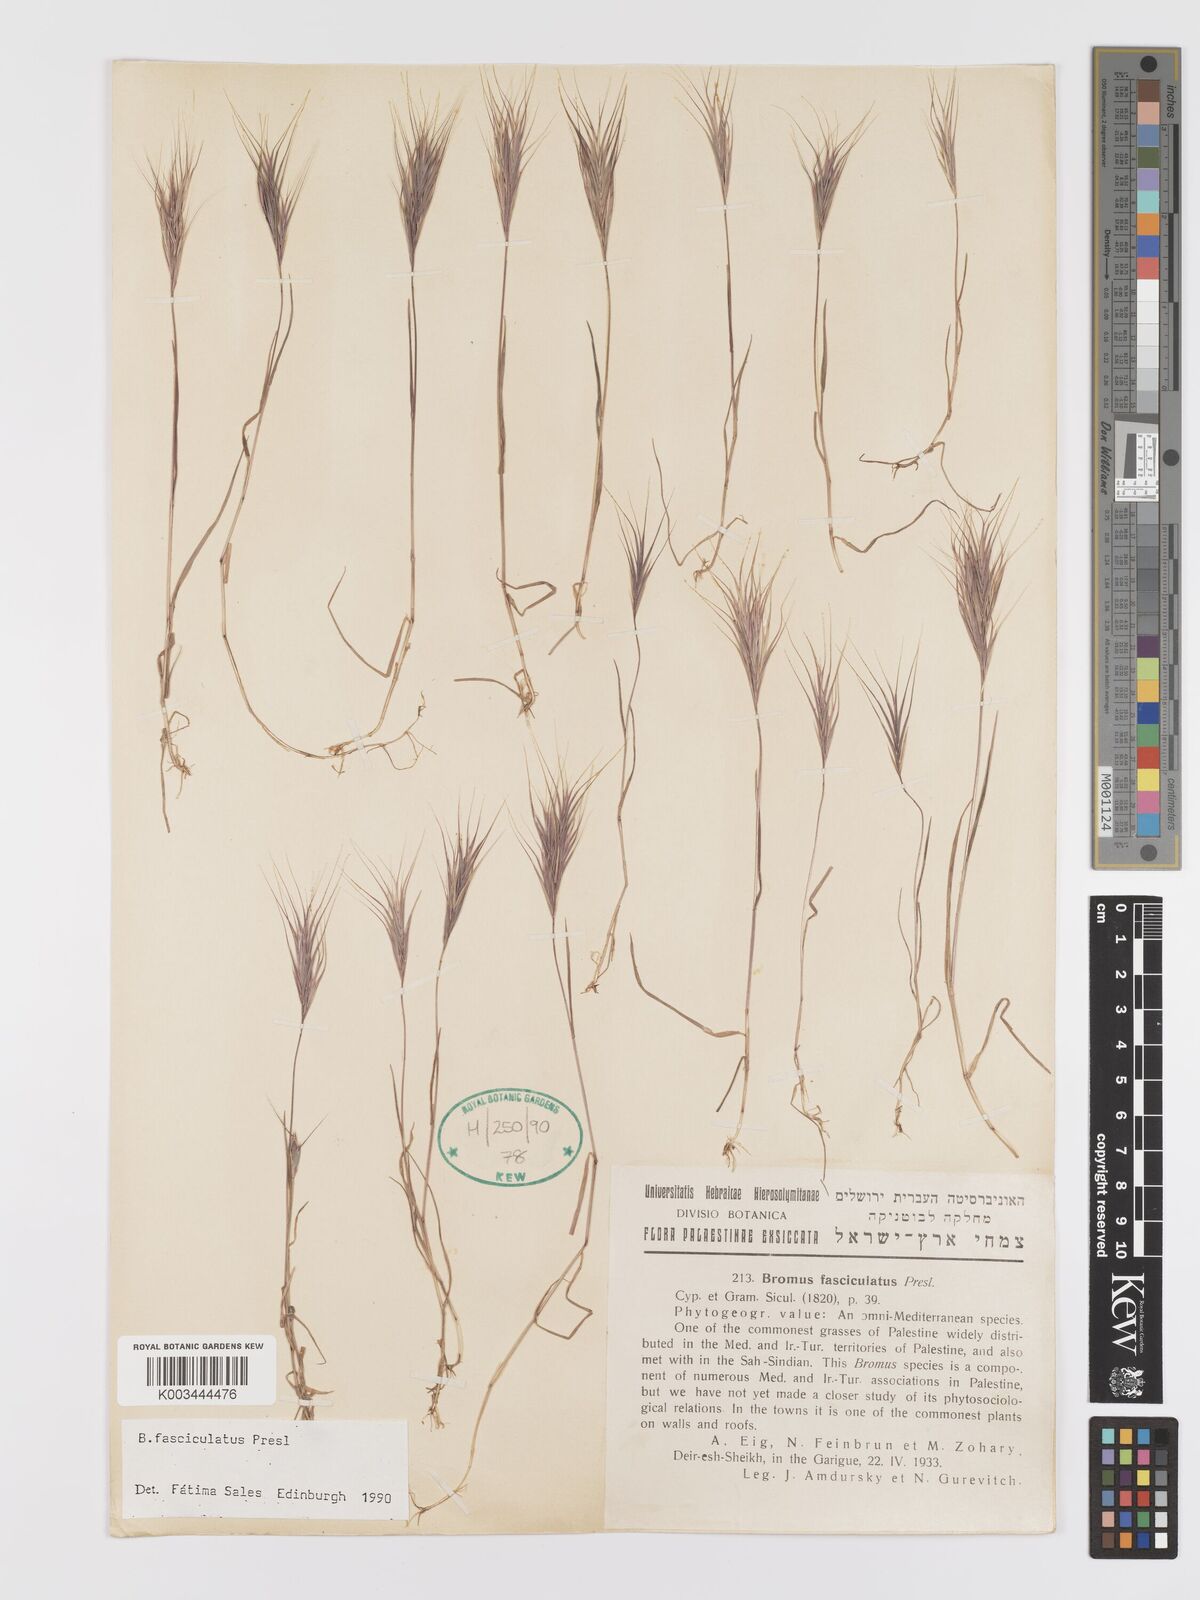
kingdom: Plantae
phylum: Tracheophyta
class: Liliopsida
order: Poales
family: Poaceae
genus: Bromus
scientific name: Bromus fasciculatus
